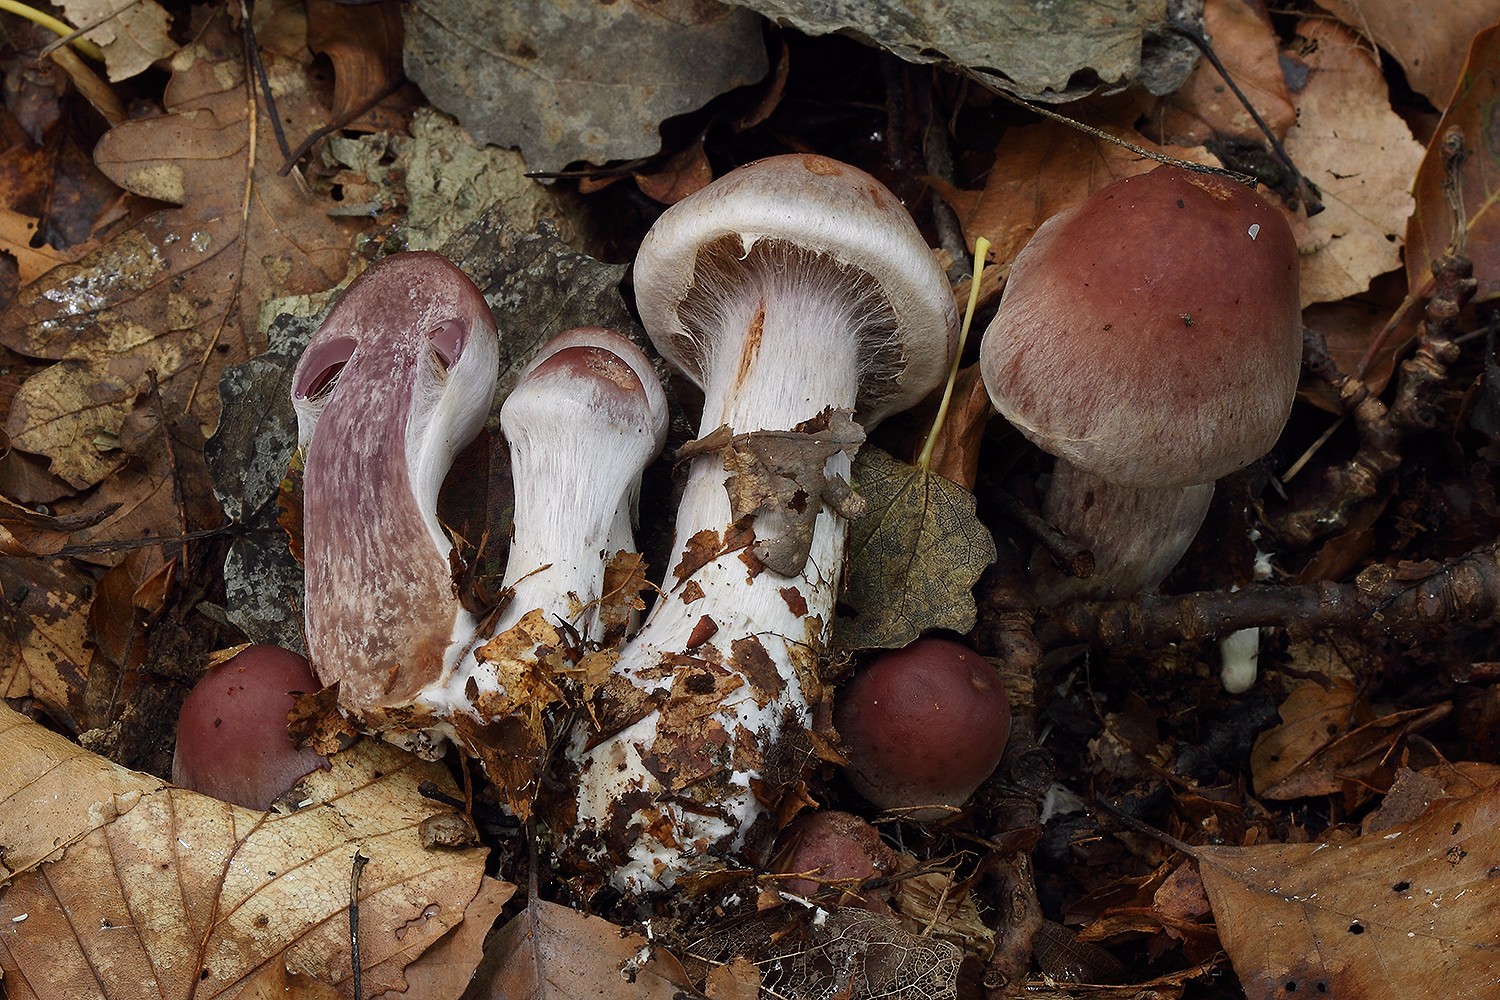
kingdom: Fungi
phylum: Basidiomycota
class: Agaricomycetes
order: Agaricales
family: Cortinariaceae
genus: Cortinarius
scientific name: Cortinarius lucorum
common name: aspe-slørhat
